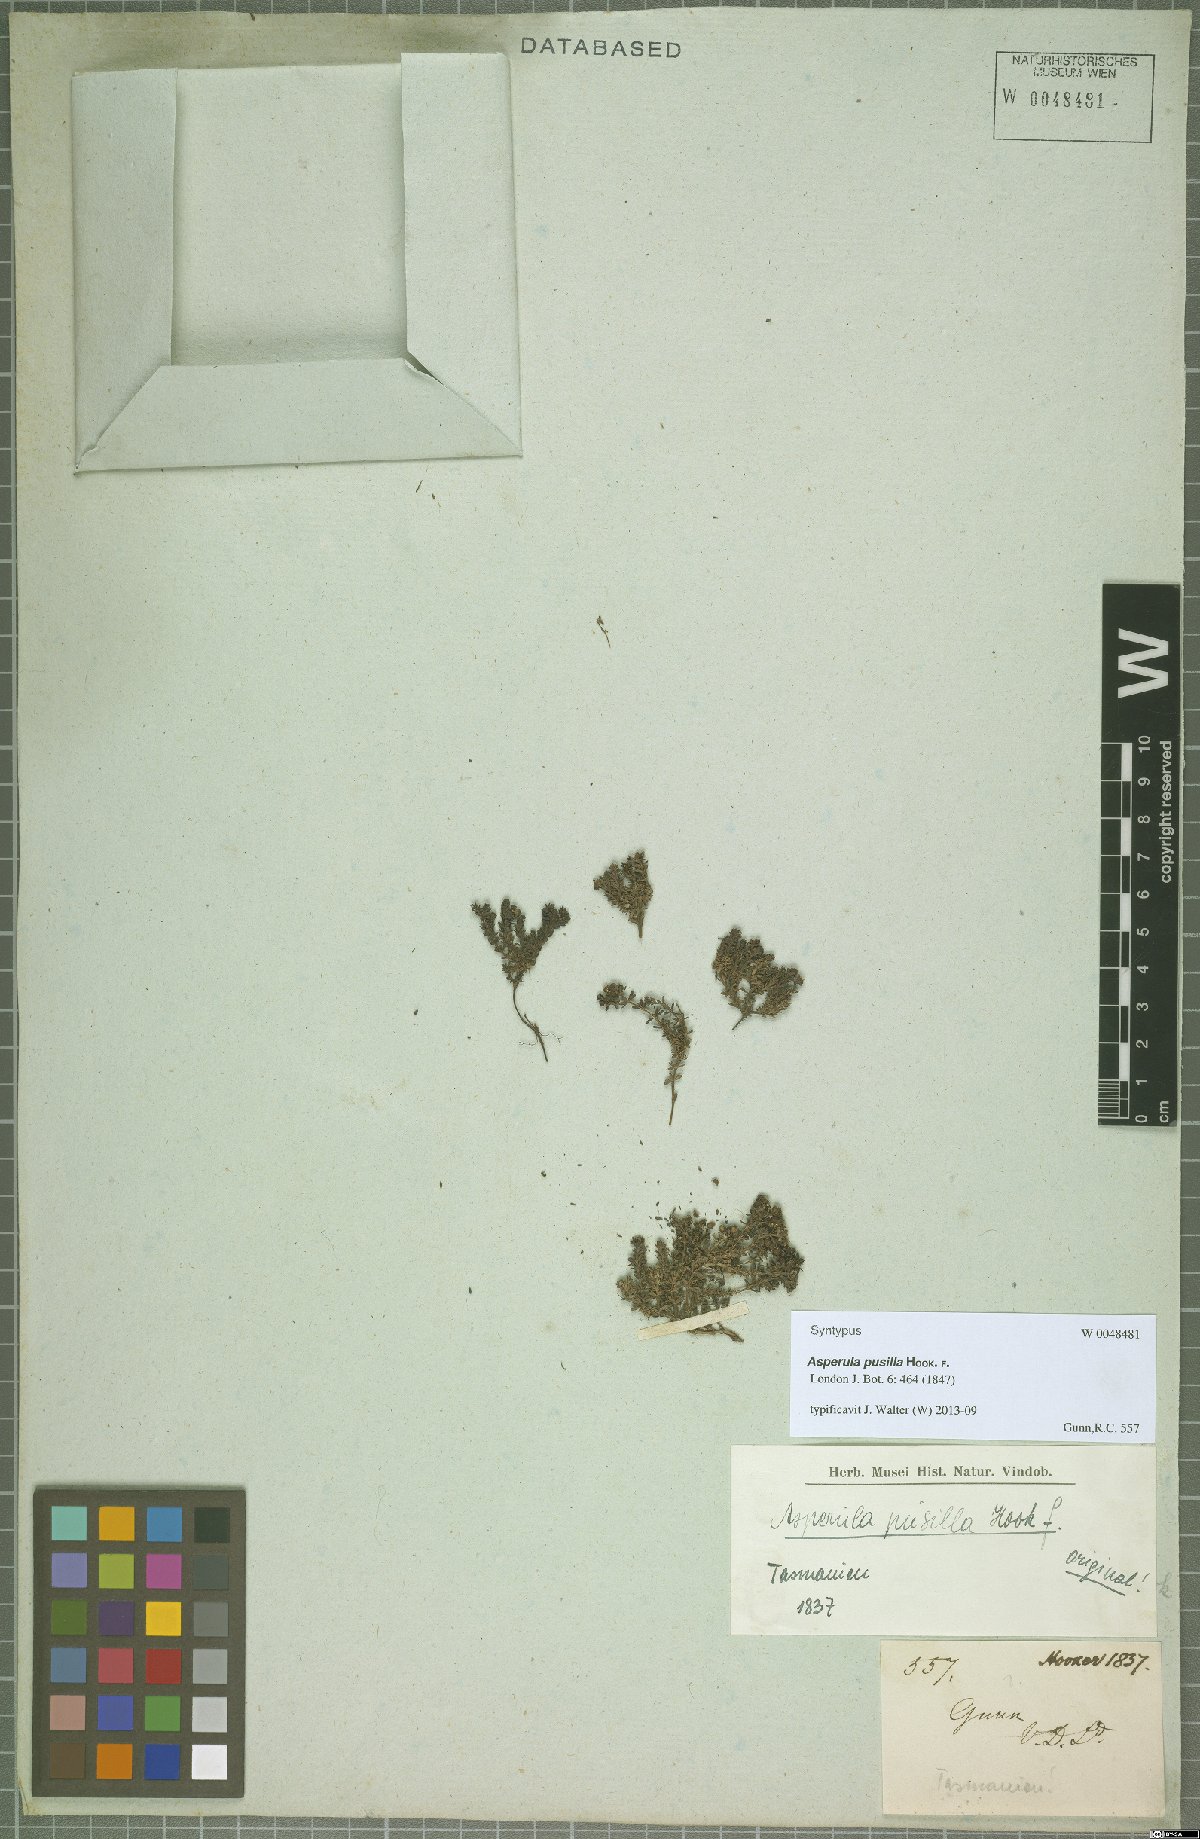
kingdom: Plantae
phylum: Tracheophyta
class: Magnoliopsida
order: Gentianales
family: Rubiaceae
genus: Asperula
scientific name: Asperula pusilla
